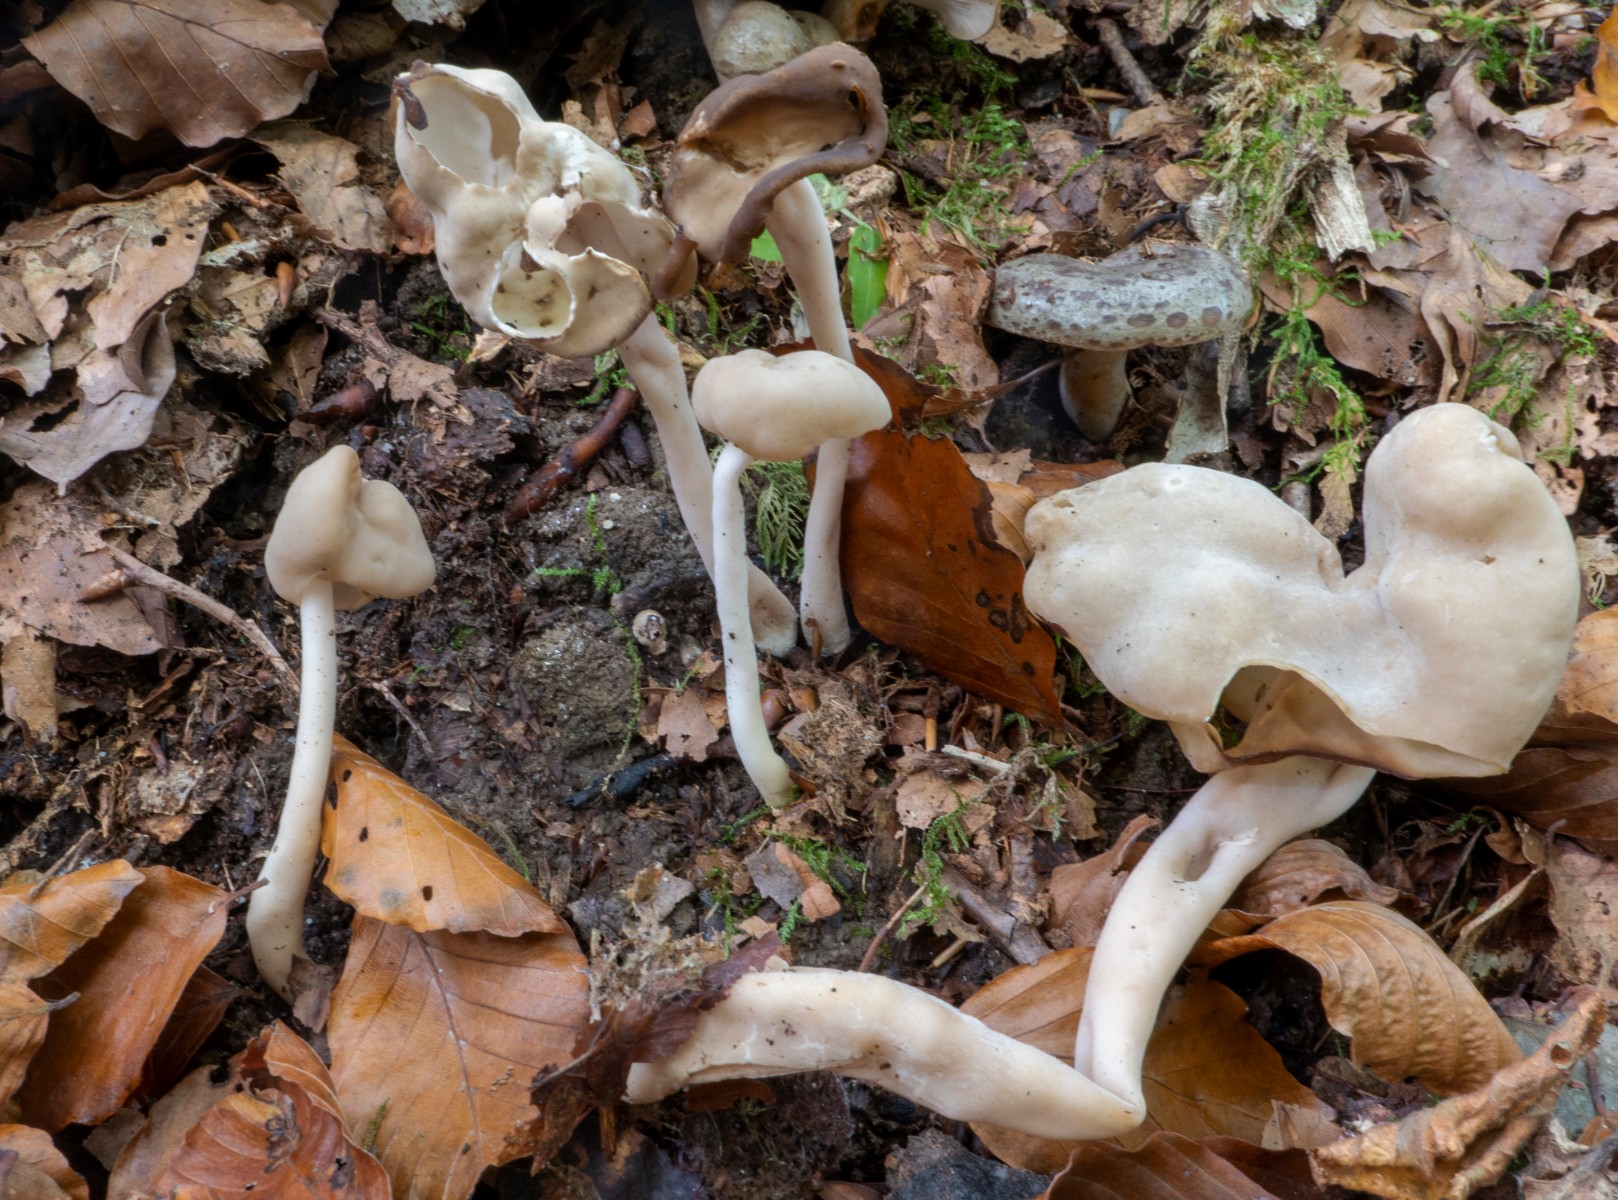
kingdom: Fungi
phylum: Ascomycota
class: Pezizomycetes
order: Pezizales
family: Helvellaceae
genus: Helvella
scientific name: Helvella elastica
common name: elastik-foldhat
